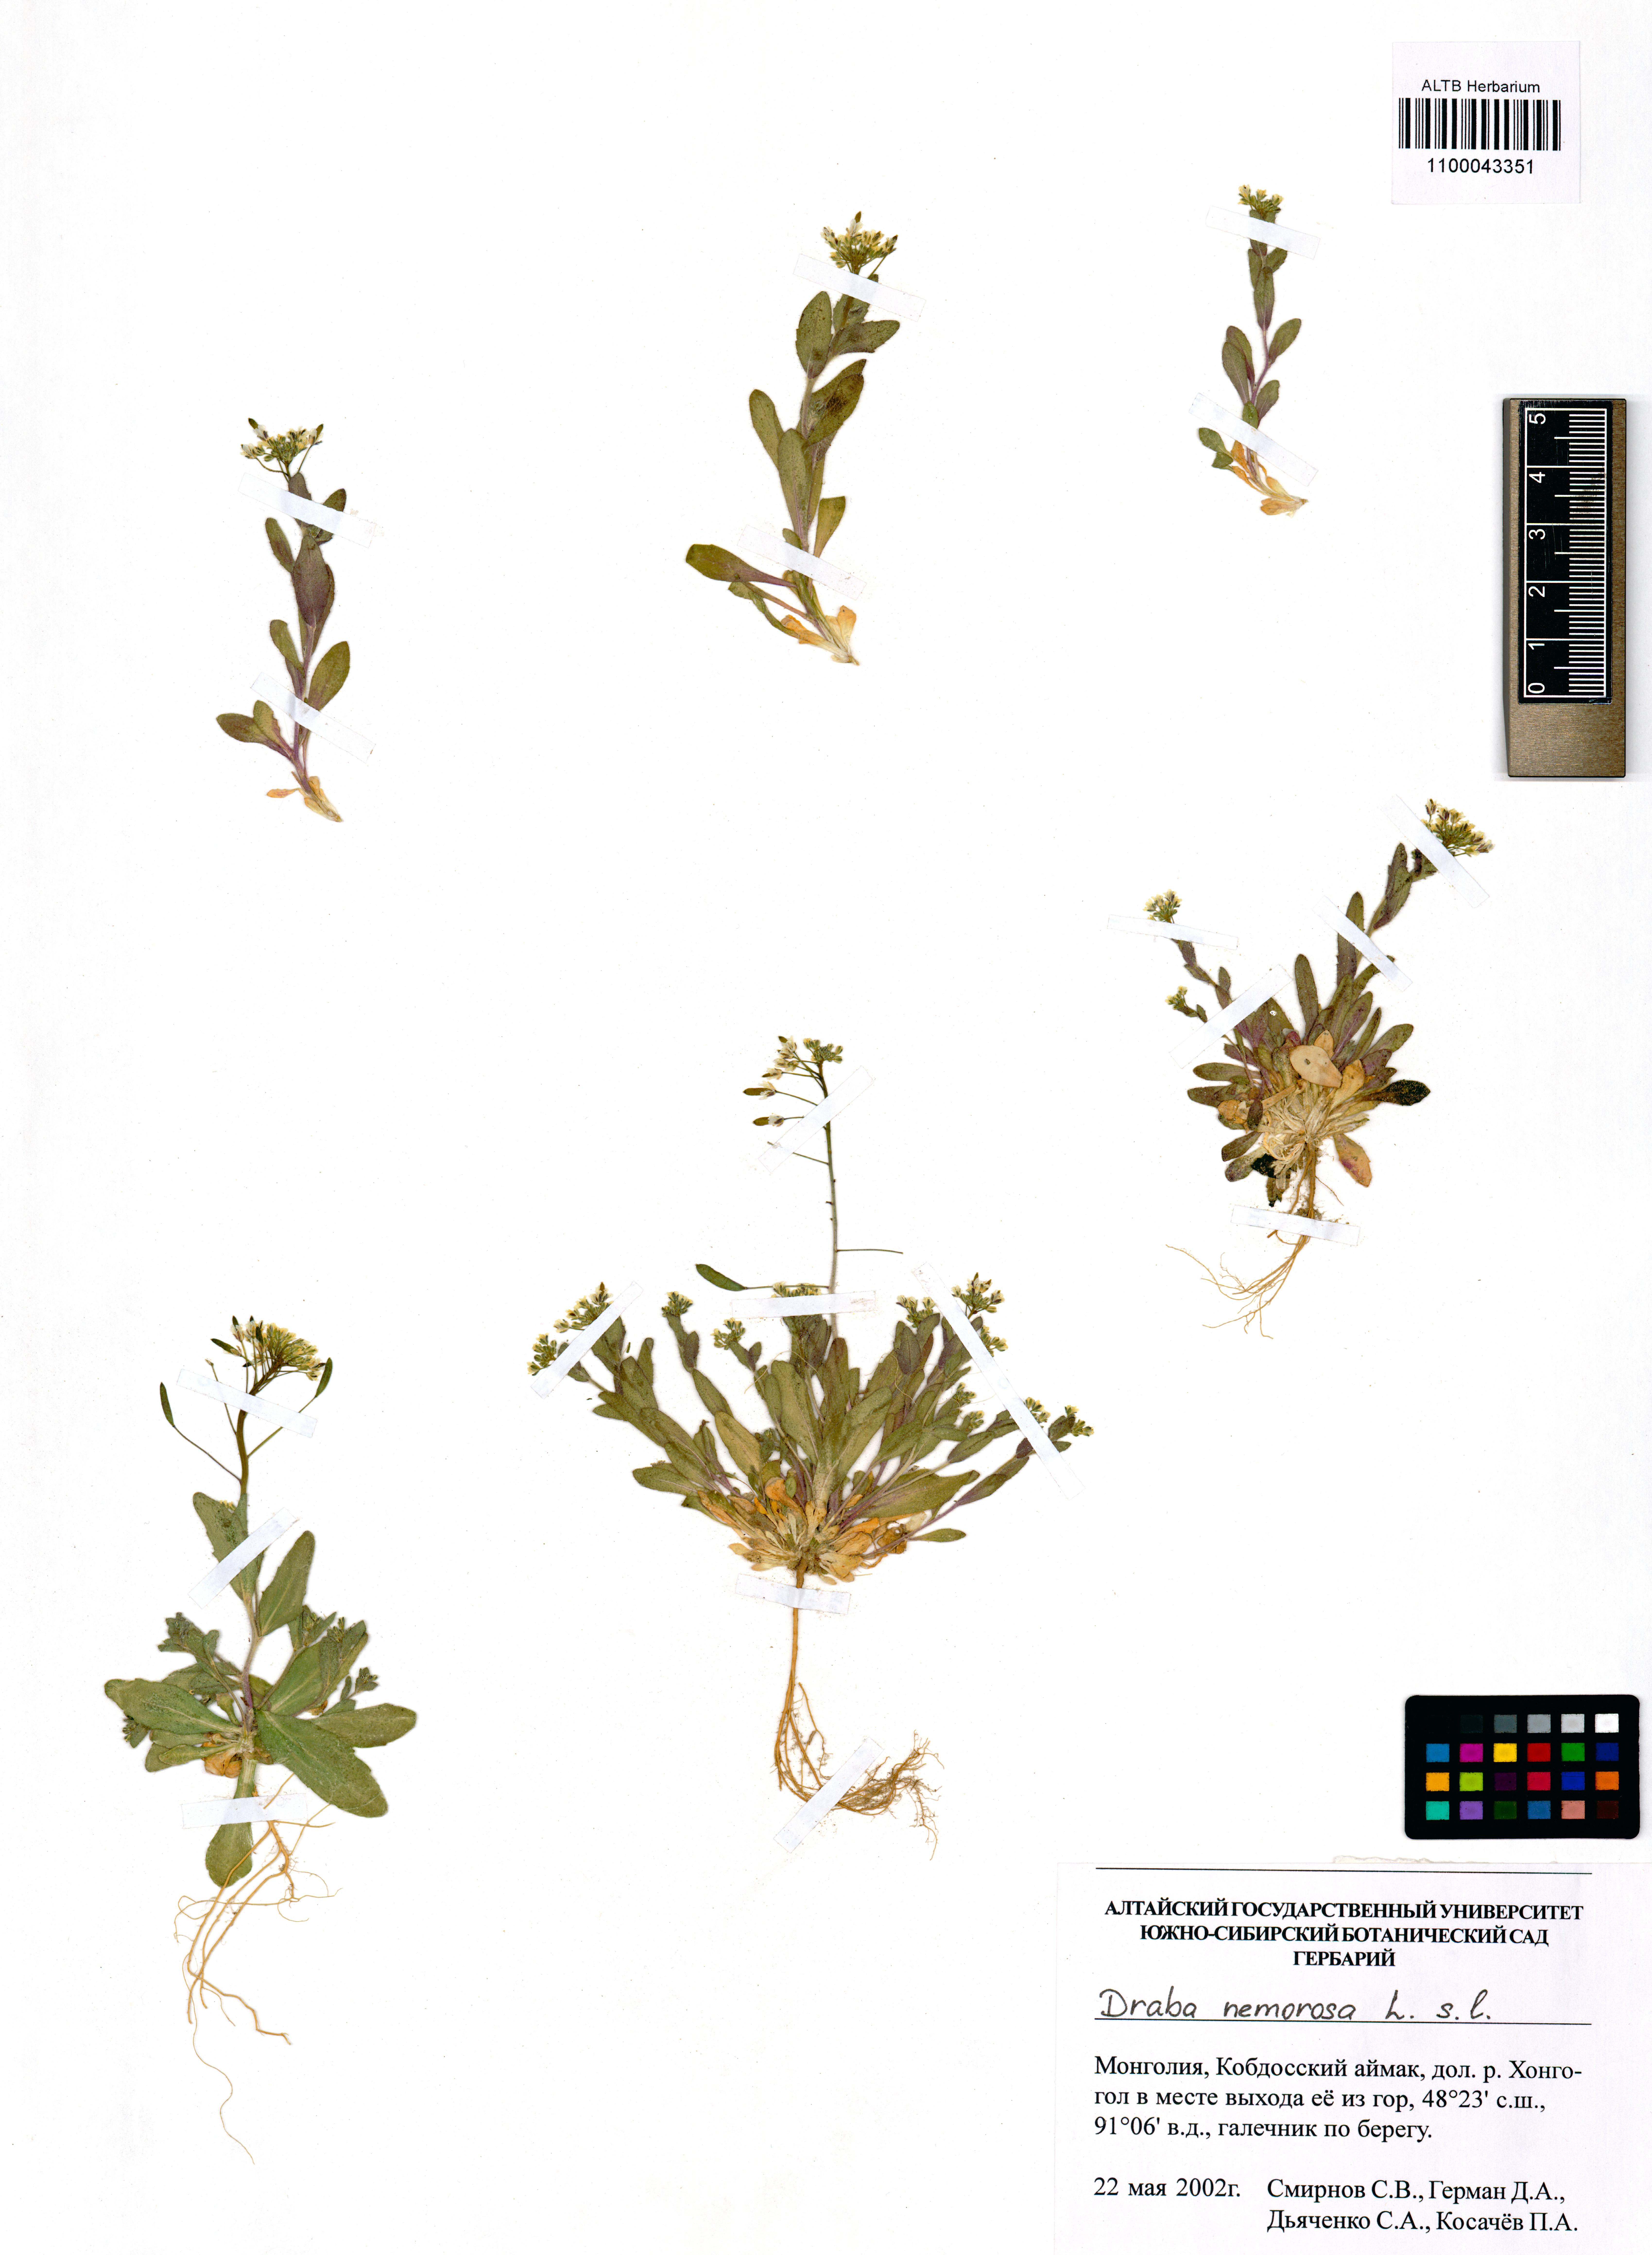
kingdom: Plantae
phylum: Tracheophyta
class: Magnoliopsida
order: Brassicales
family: Brassicaceae
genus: Draba
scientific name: Draba nemorosa
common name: Wood whitlow-grass
